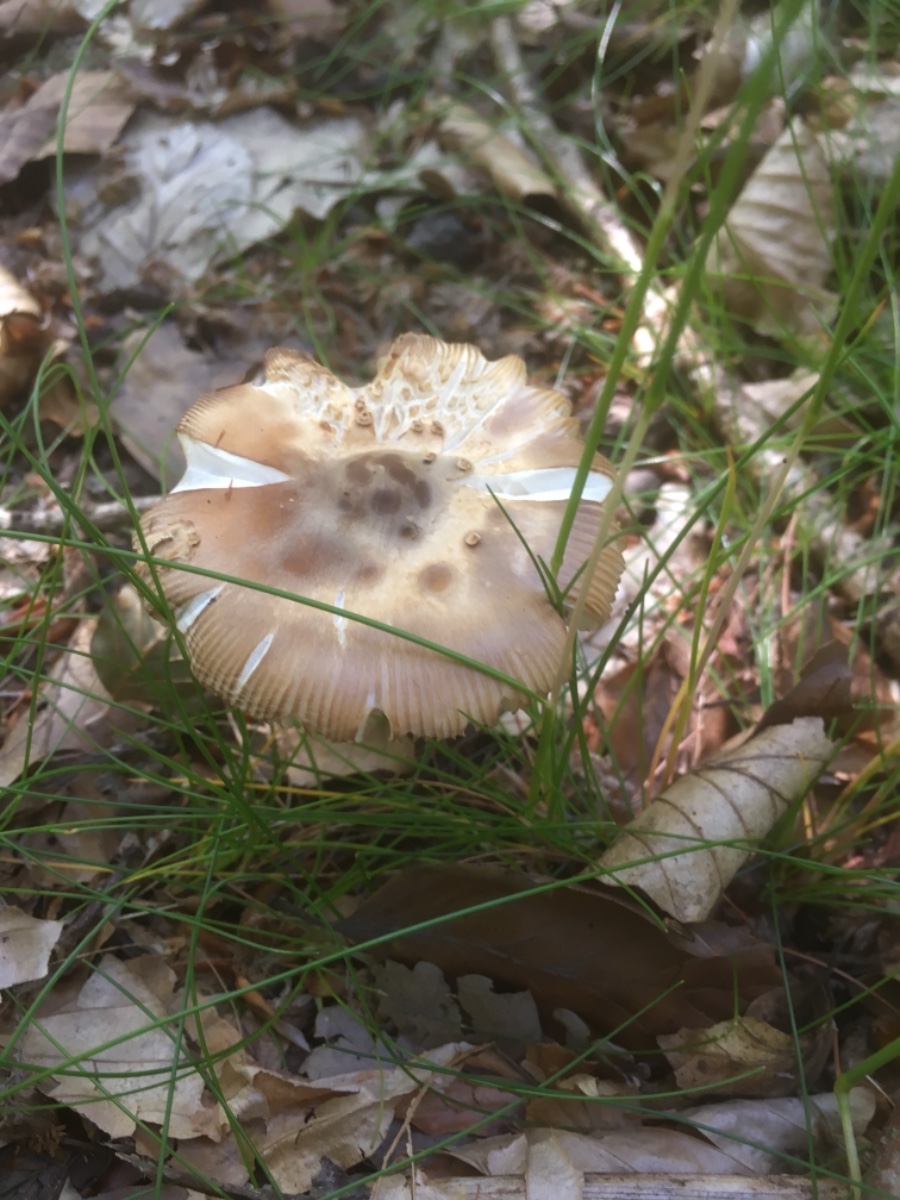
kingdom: Fungi
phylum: Basidiomycota
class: Agaricomycetes
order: Agaricales
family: Amanitaceae
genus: Amanita
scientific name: Amanita fulva
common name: brun kam-fluesvamp
